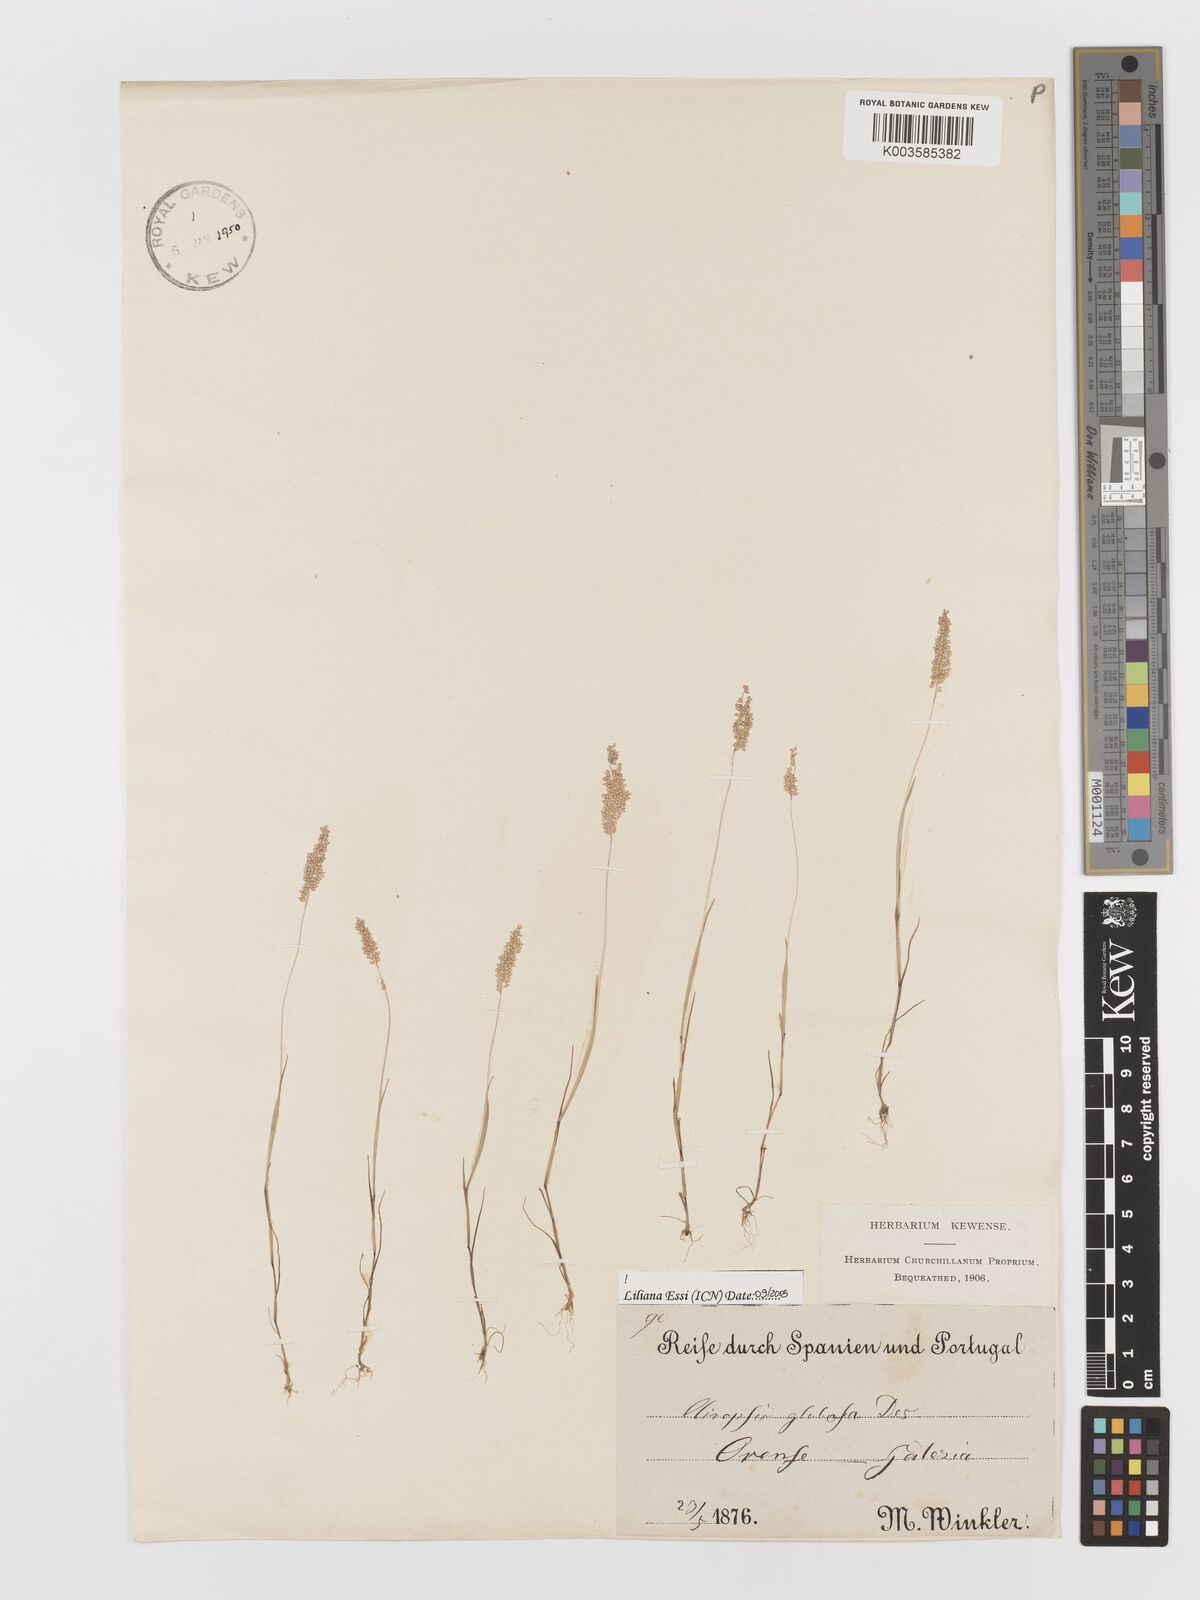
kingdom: Plantae
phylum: Tracheophyta
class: Liliopsida
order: Poales
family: Poaceae
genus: Airopsis
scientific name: Airopsis tenella
